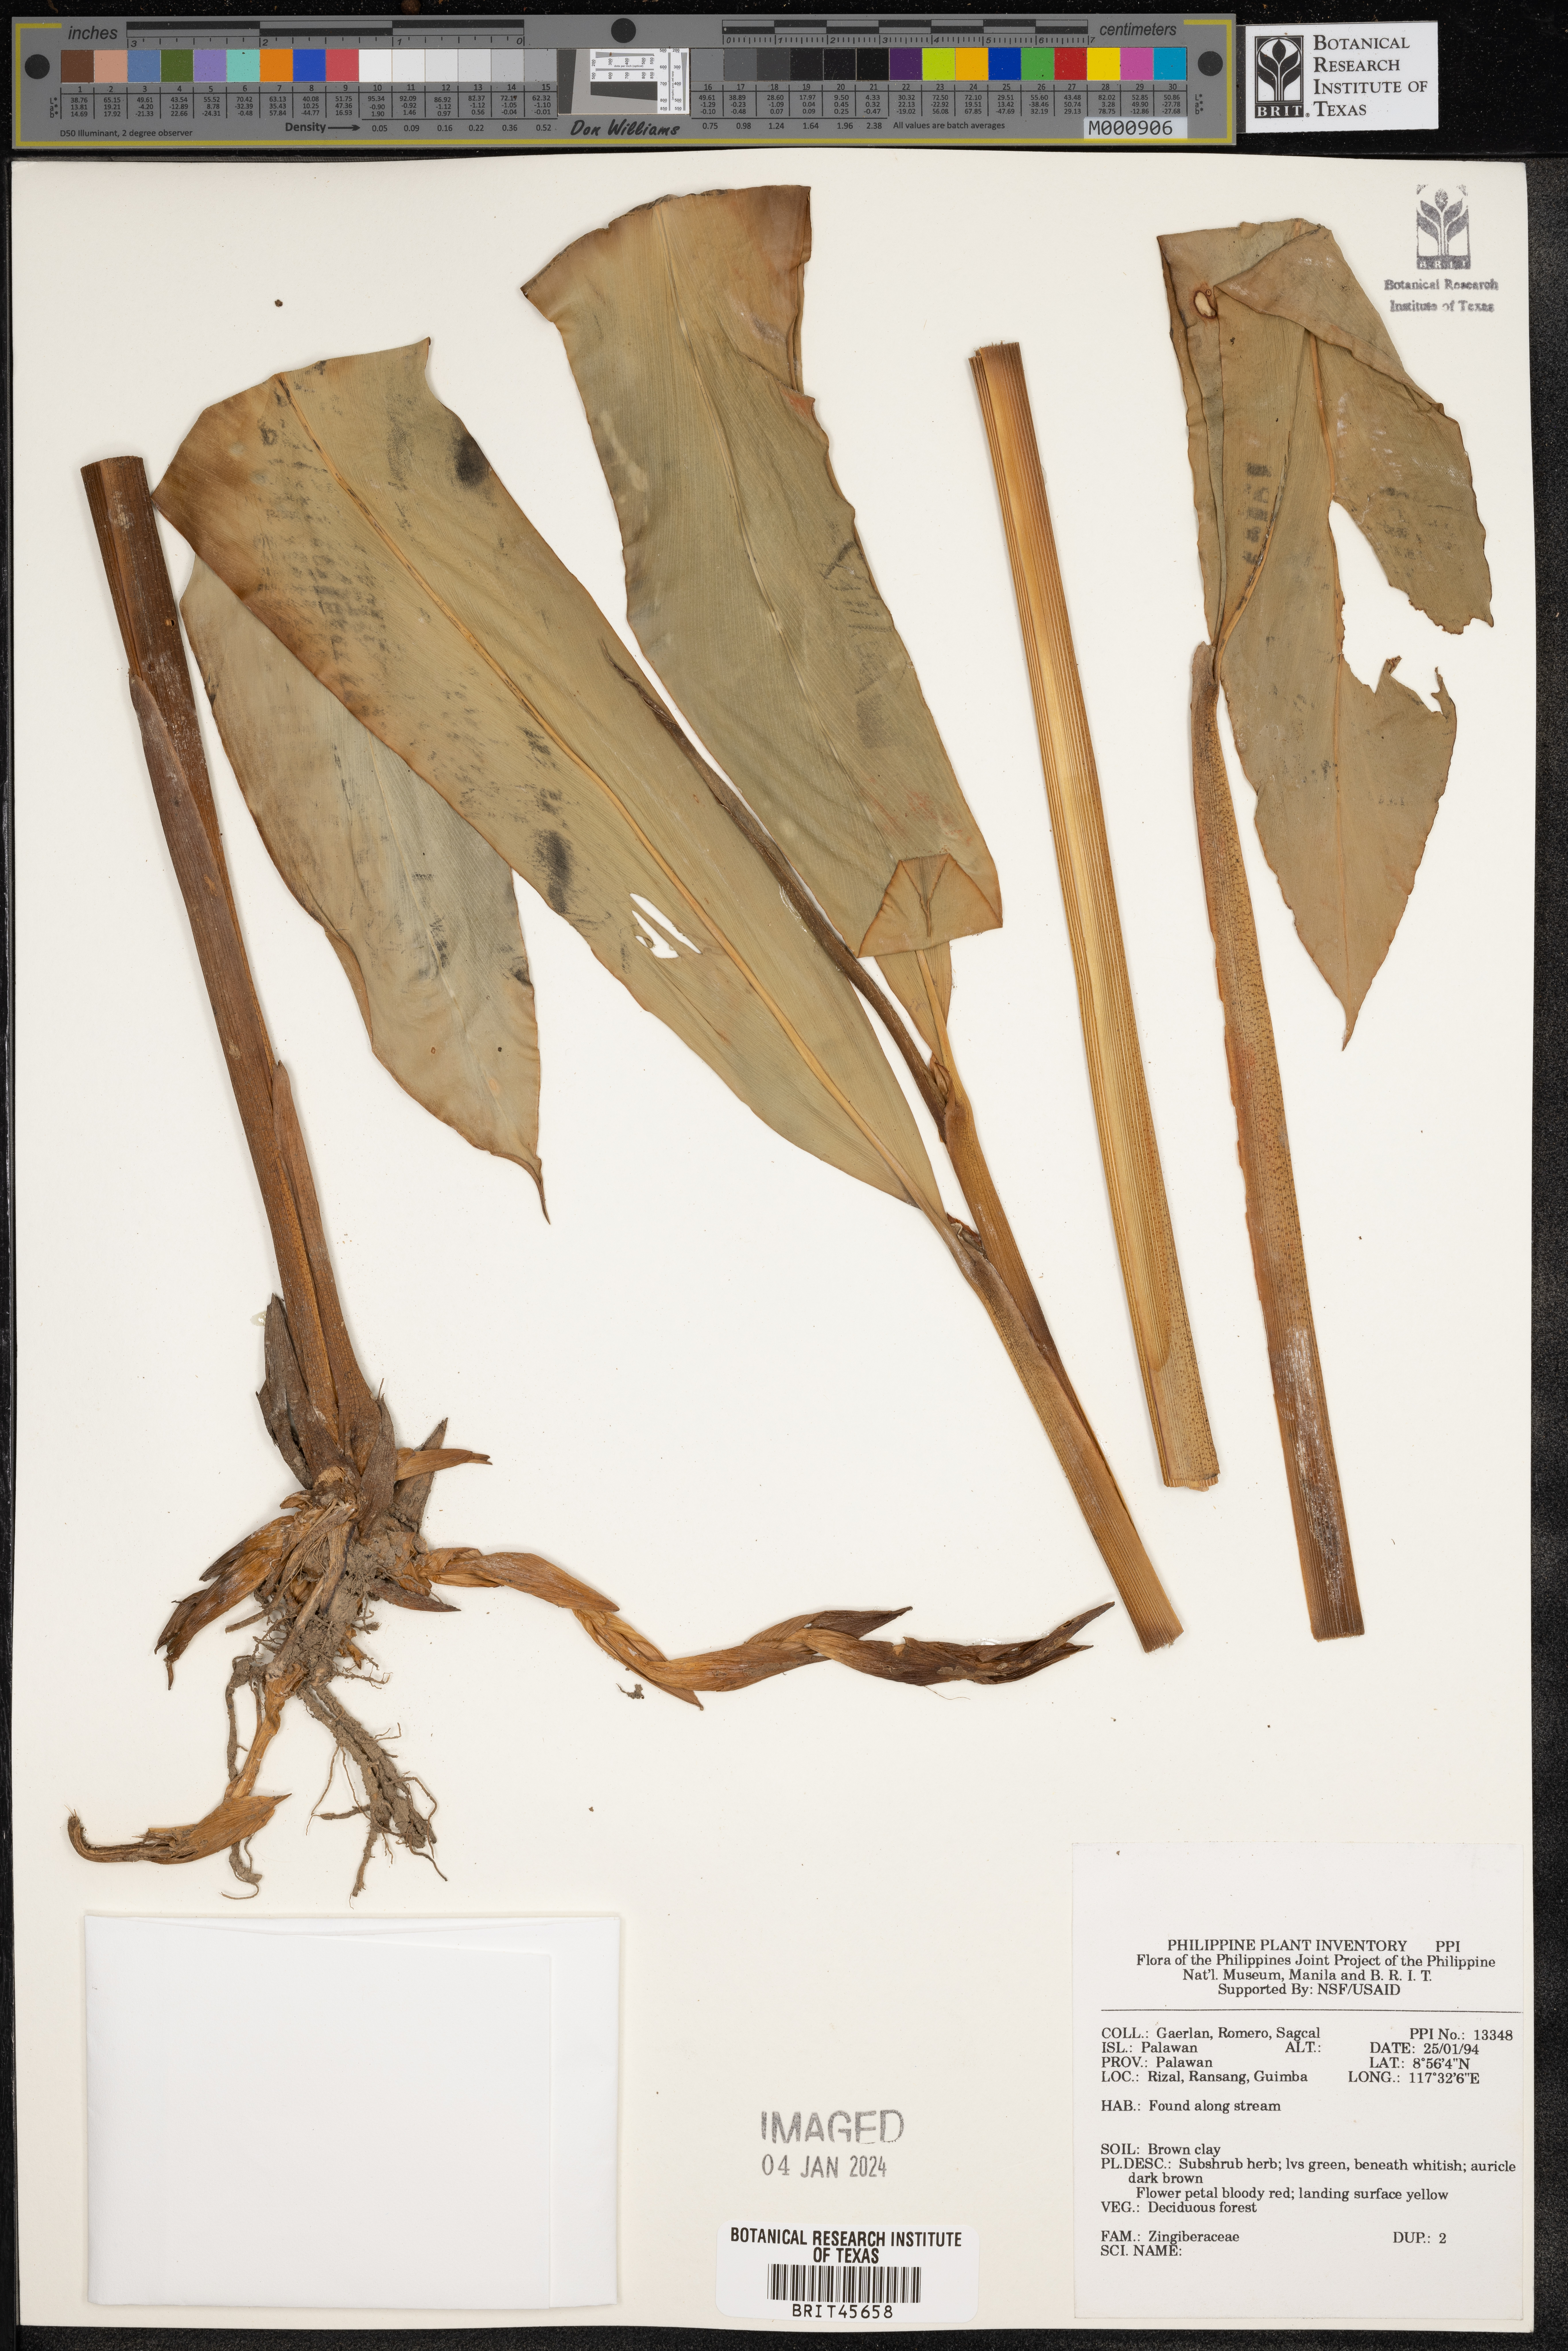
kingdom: Plantae
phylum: Tracheophyta
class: Liliopsida
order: Zingiberales
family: Zingiberaceae
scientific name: Zingiberaceae
